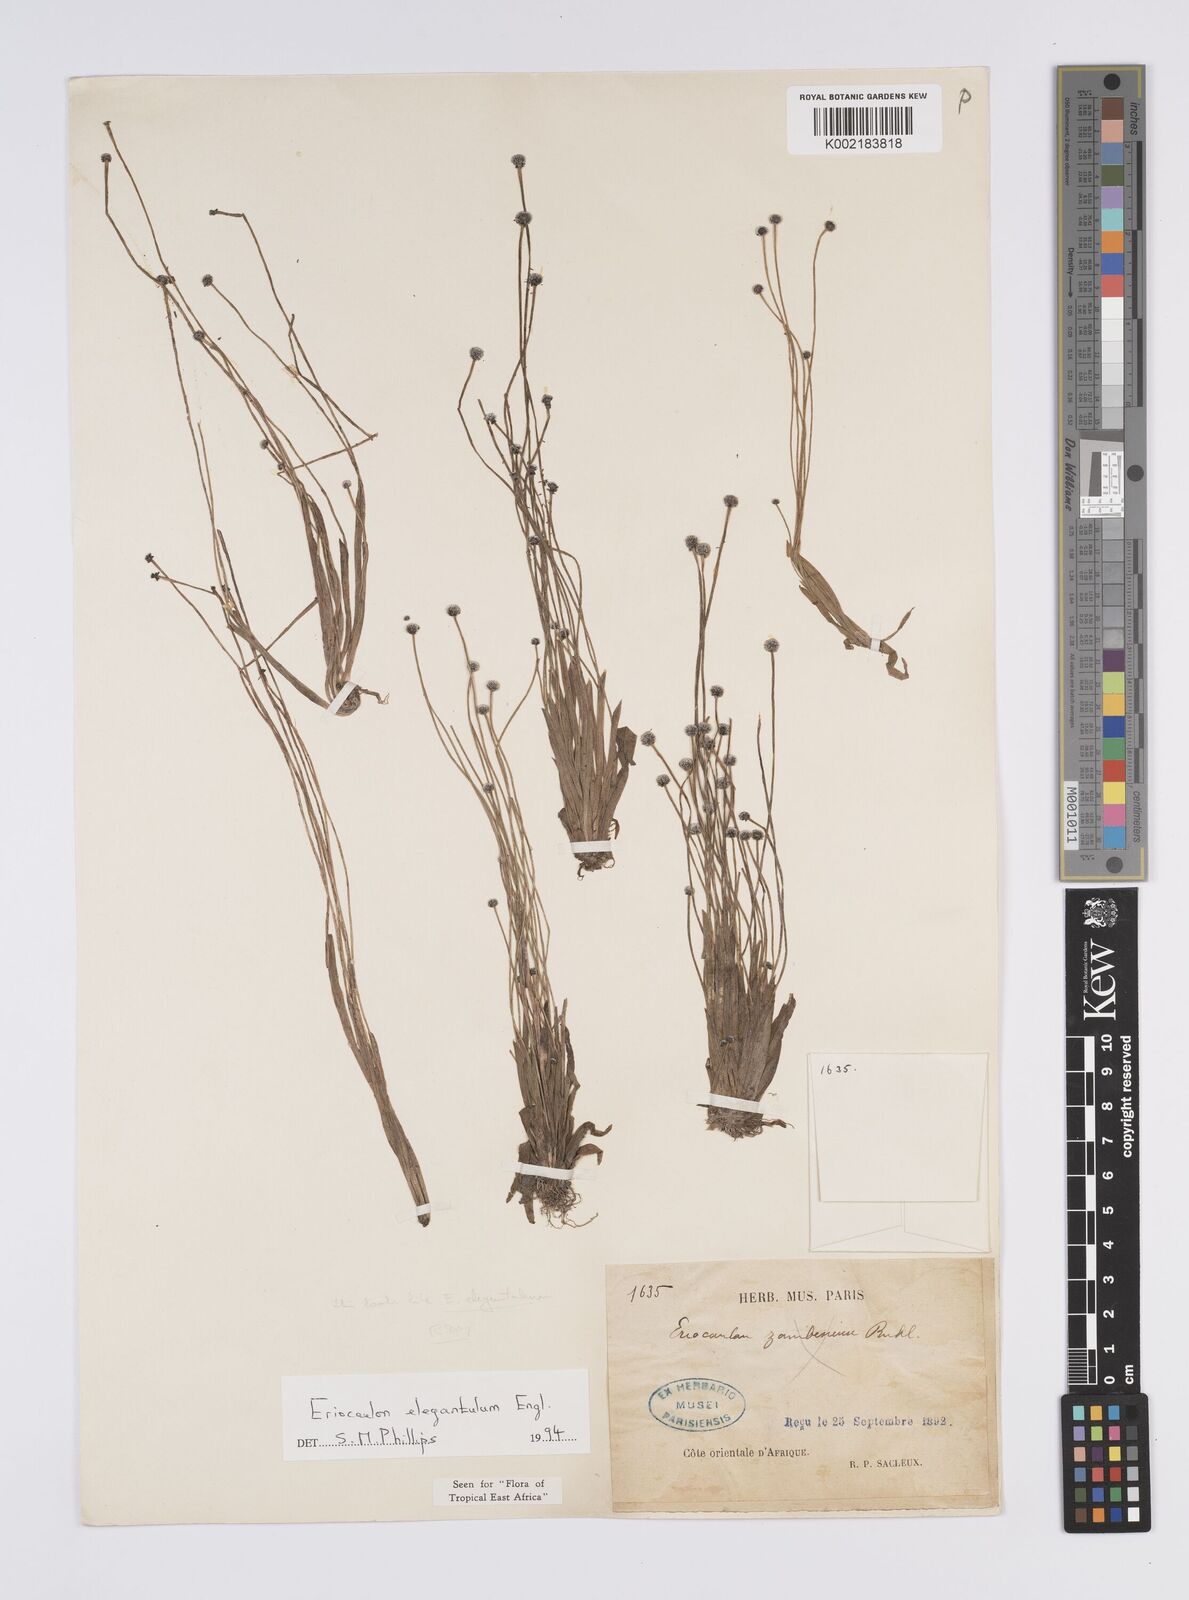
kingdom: Plantae
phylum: Tracheophyta
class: Liliopsida
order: Poales
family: Eriocaulaceae
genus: Eriocaulon
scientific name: Eriocaulon elegantulum
